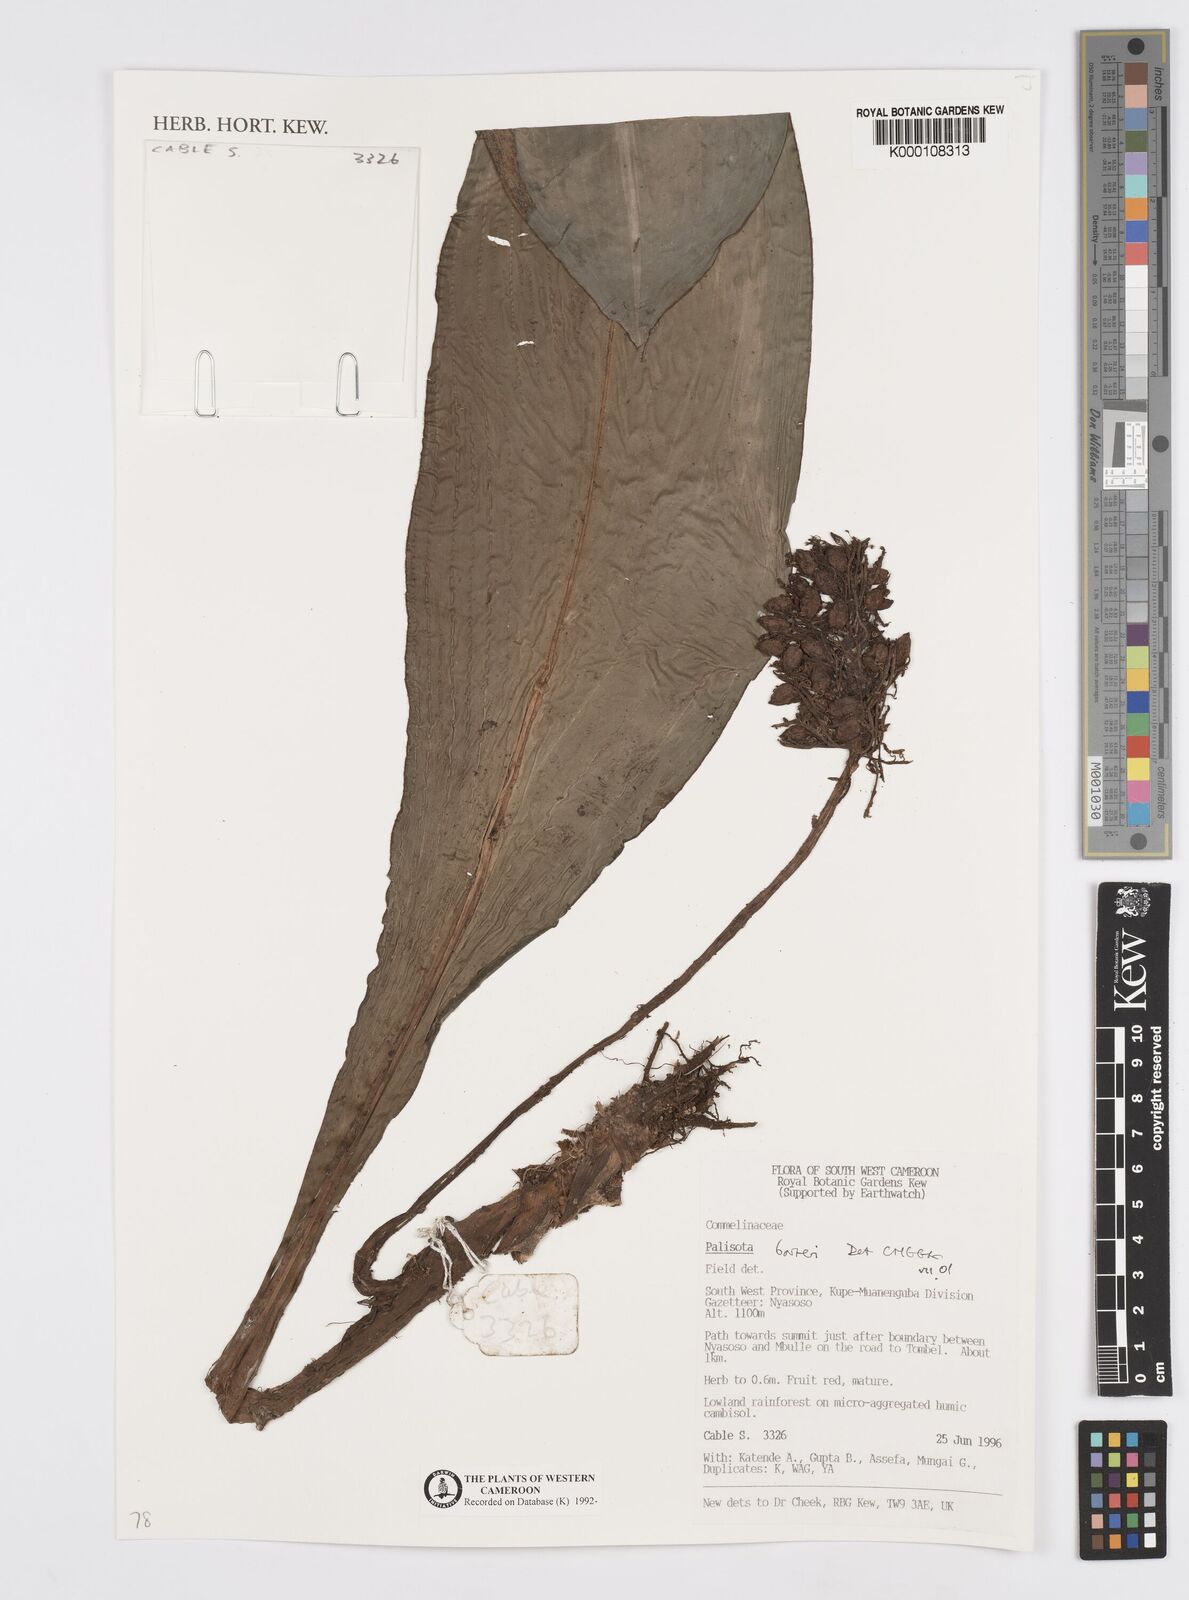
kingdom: Plantae
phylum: Tracheophyta
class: Liliopsida
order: Commelinales
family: Commelinaceae
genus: Palisota
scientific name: Palisota barteri
